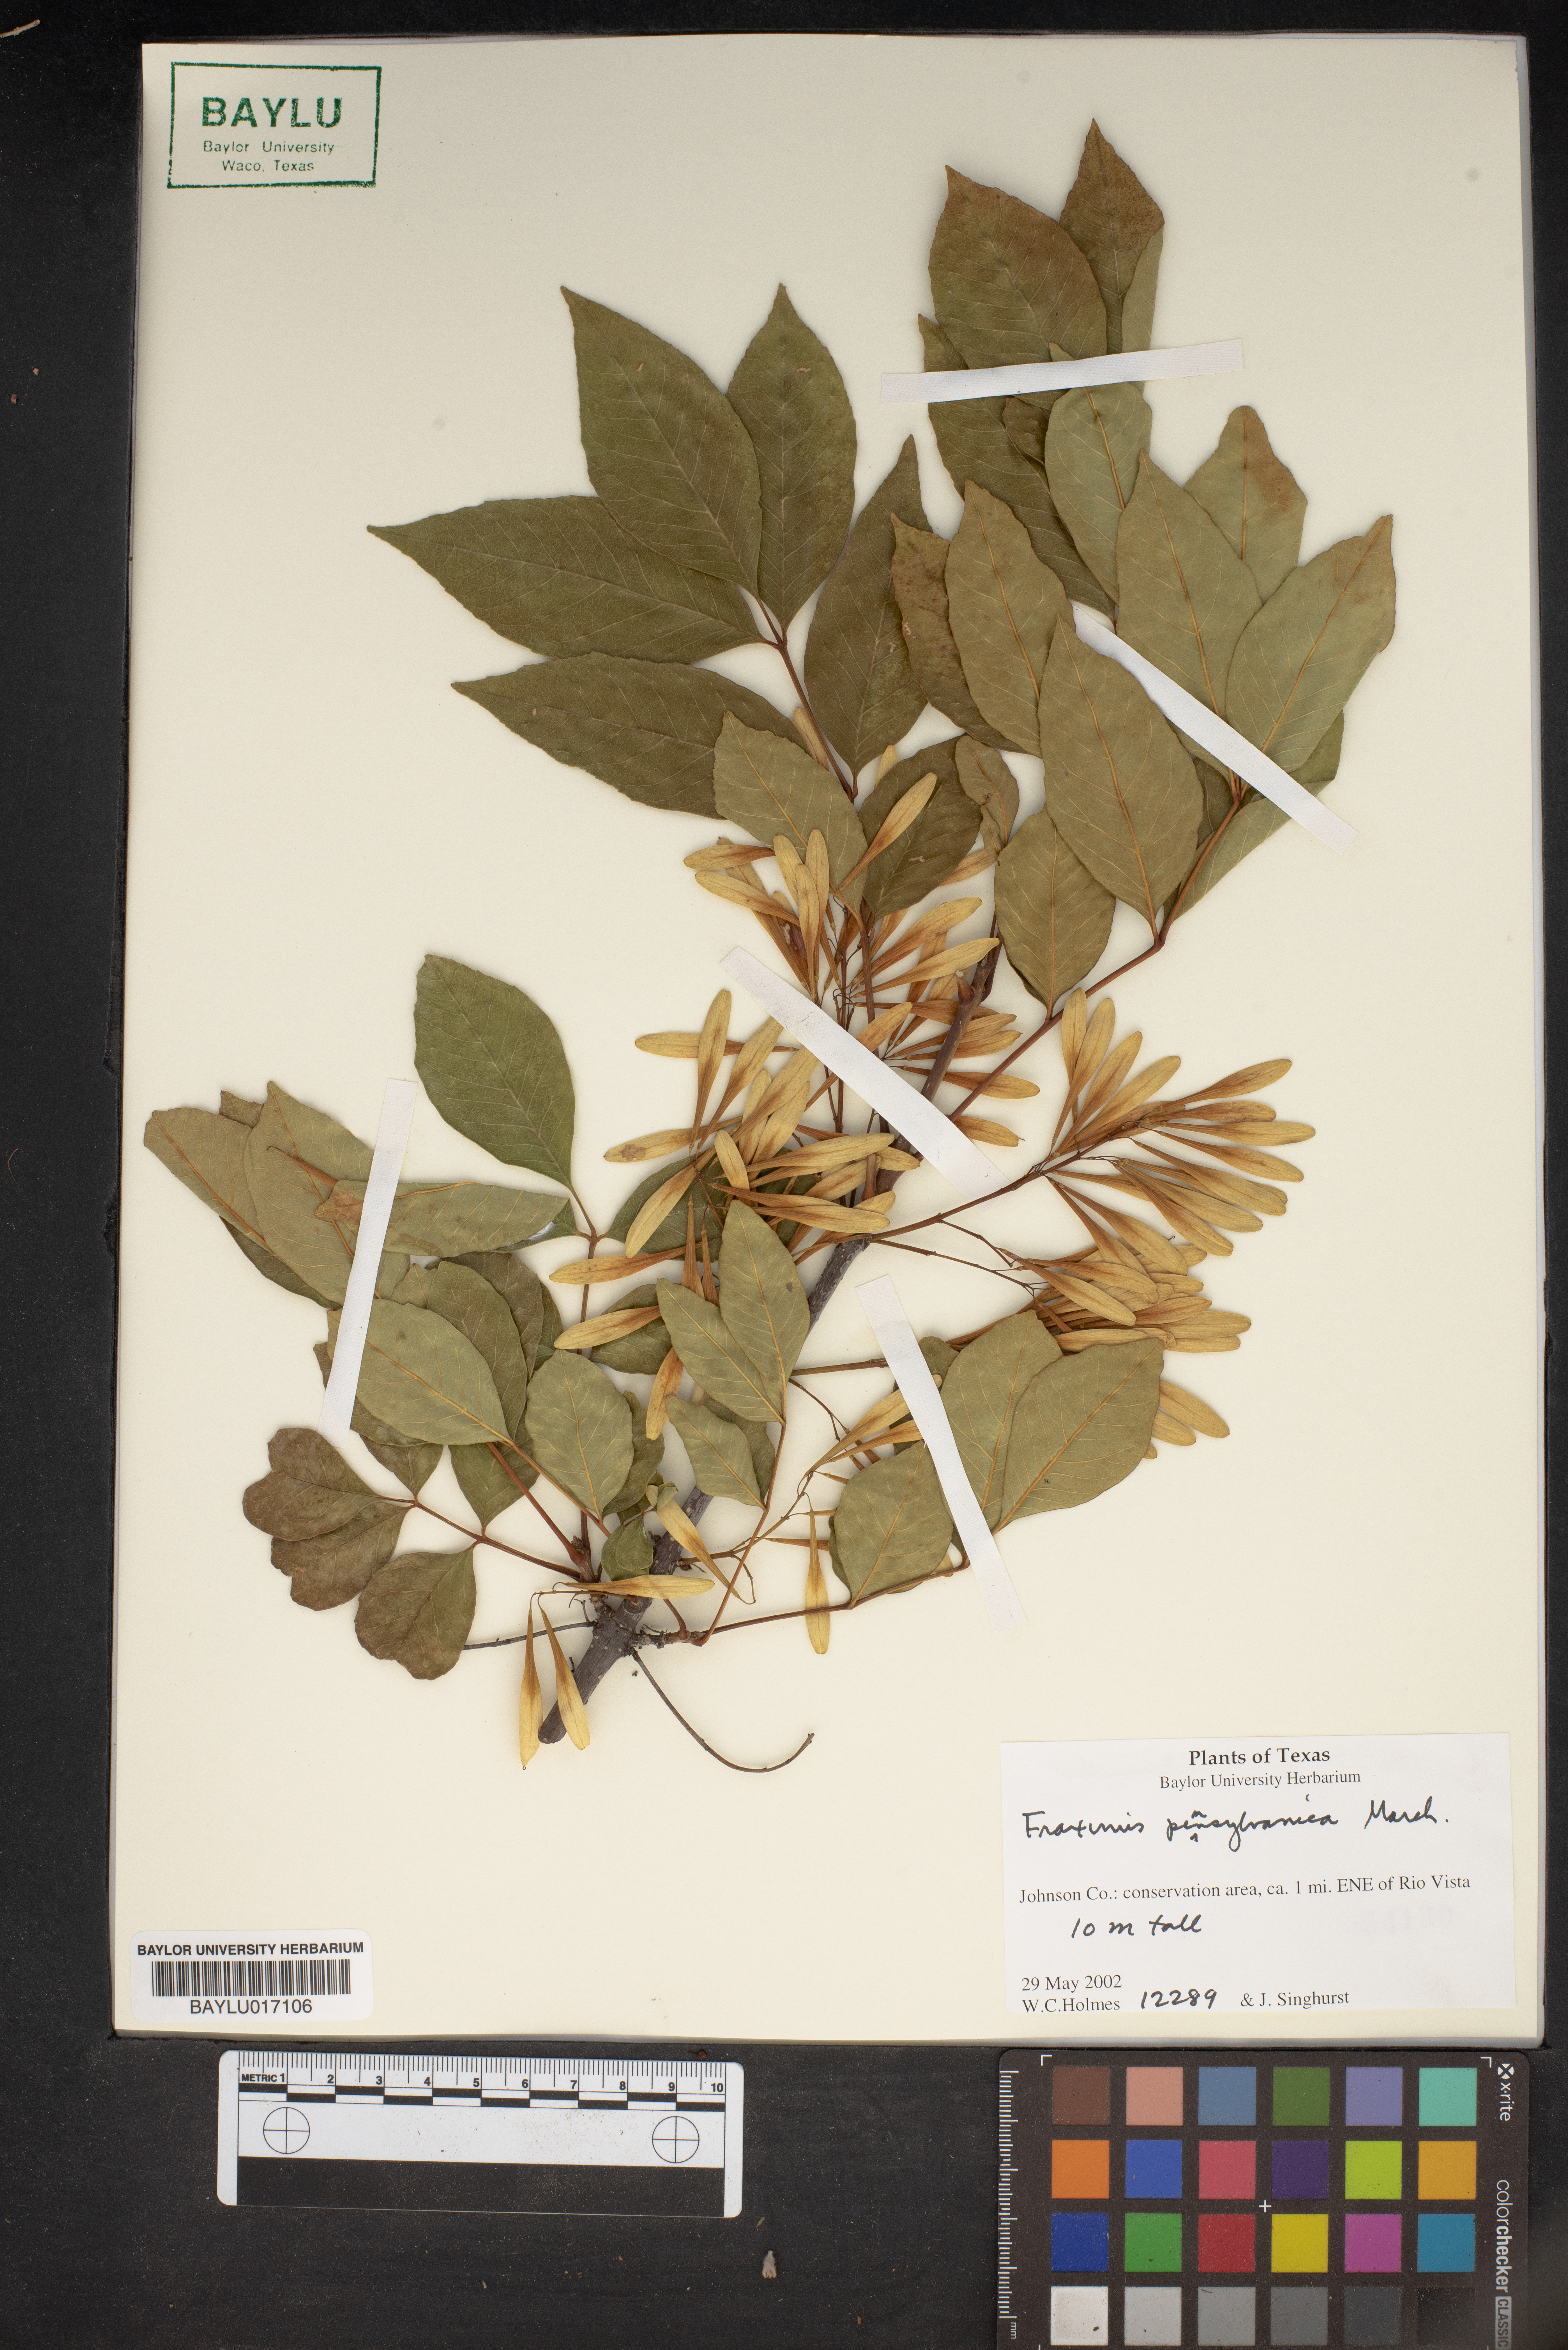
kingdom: Plantae
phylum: Tracheophyta
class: Magnoliopsida
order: Lamiales
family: Oleaceae
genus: Fraxinus
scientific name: Fraxinus pennsylvanica
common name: Green ash
